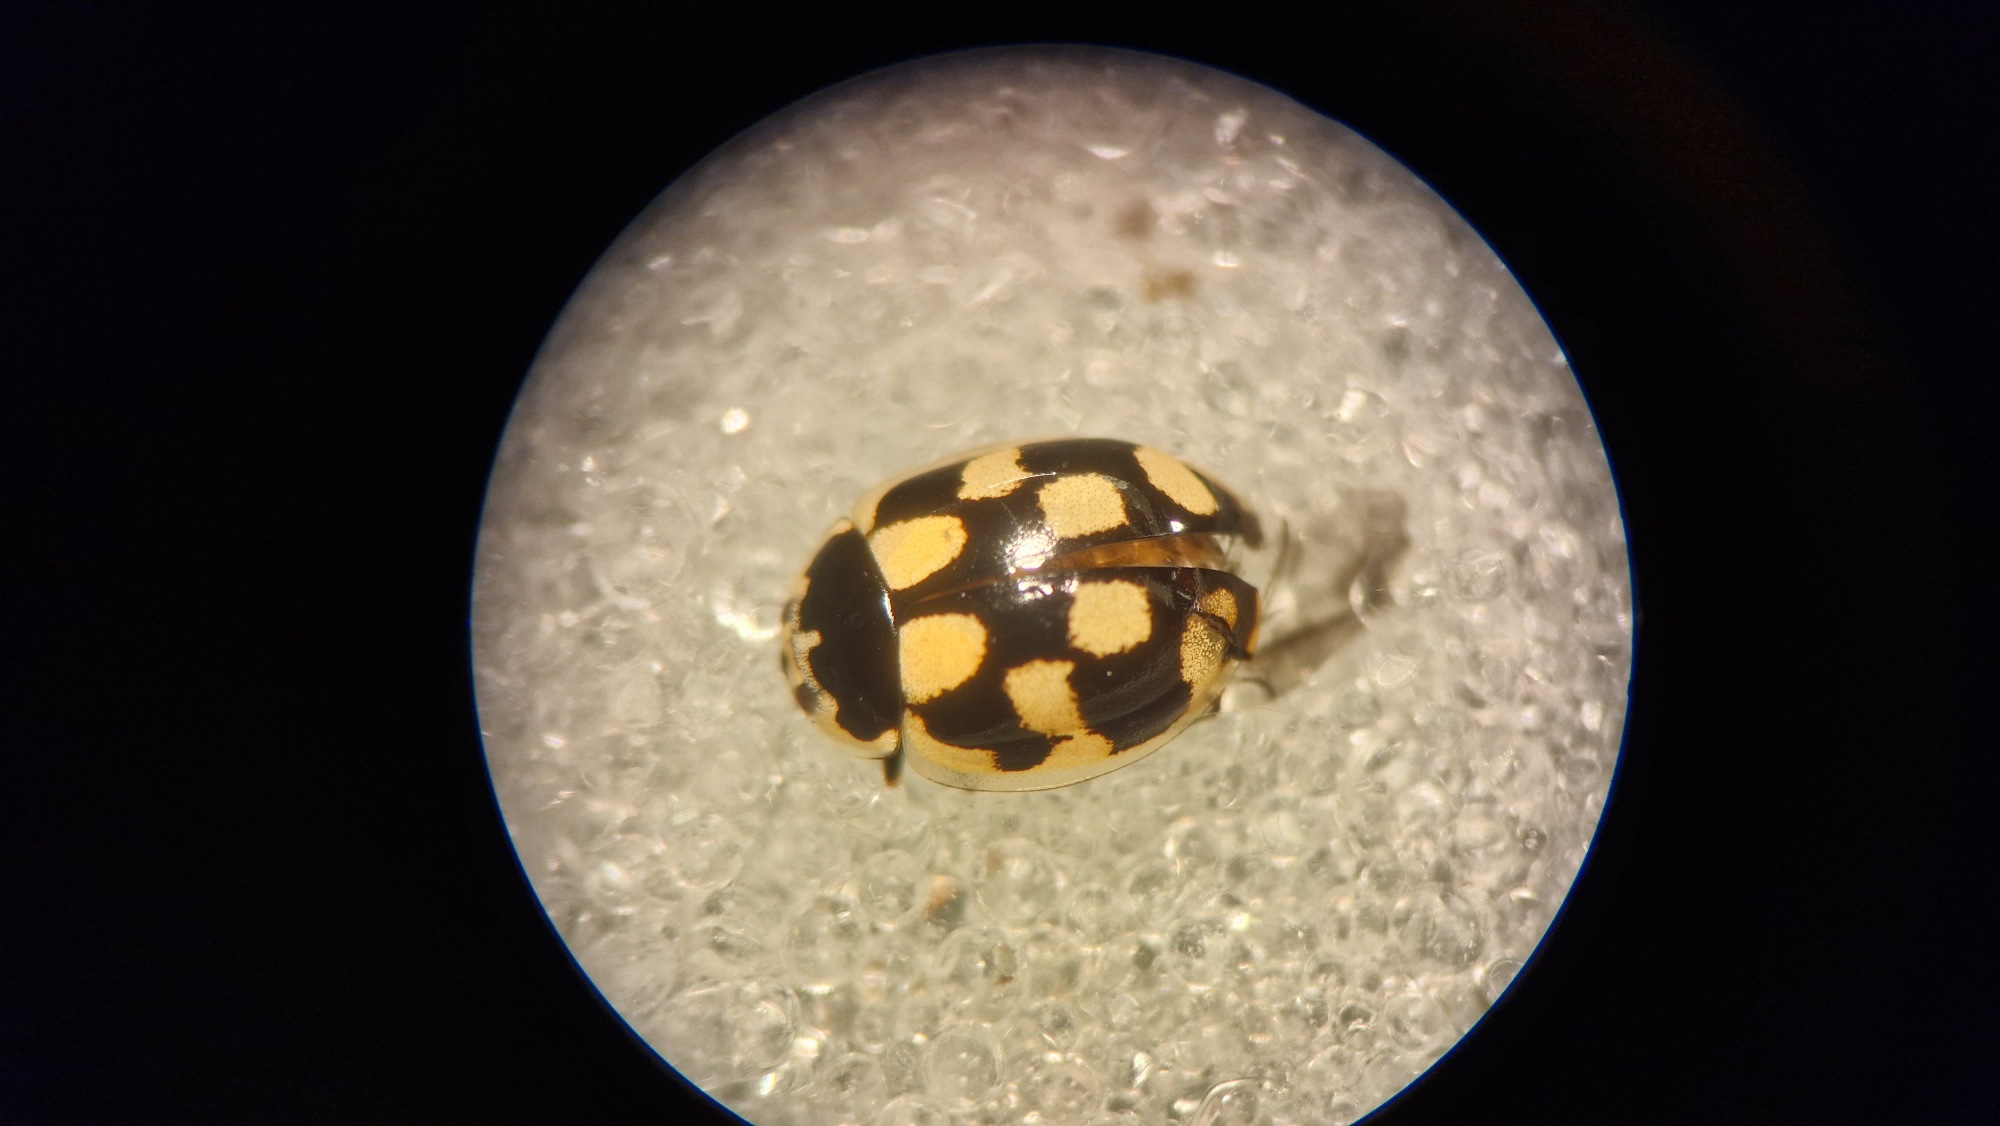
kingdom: Animalia
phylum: Arthropoda
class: Insecta
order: Coleoptera
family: Coccinellidae
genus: Propylaea
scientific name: Propylaea quatuordecimpunctata
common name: Skakbræt
